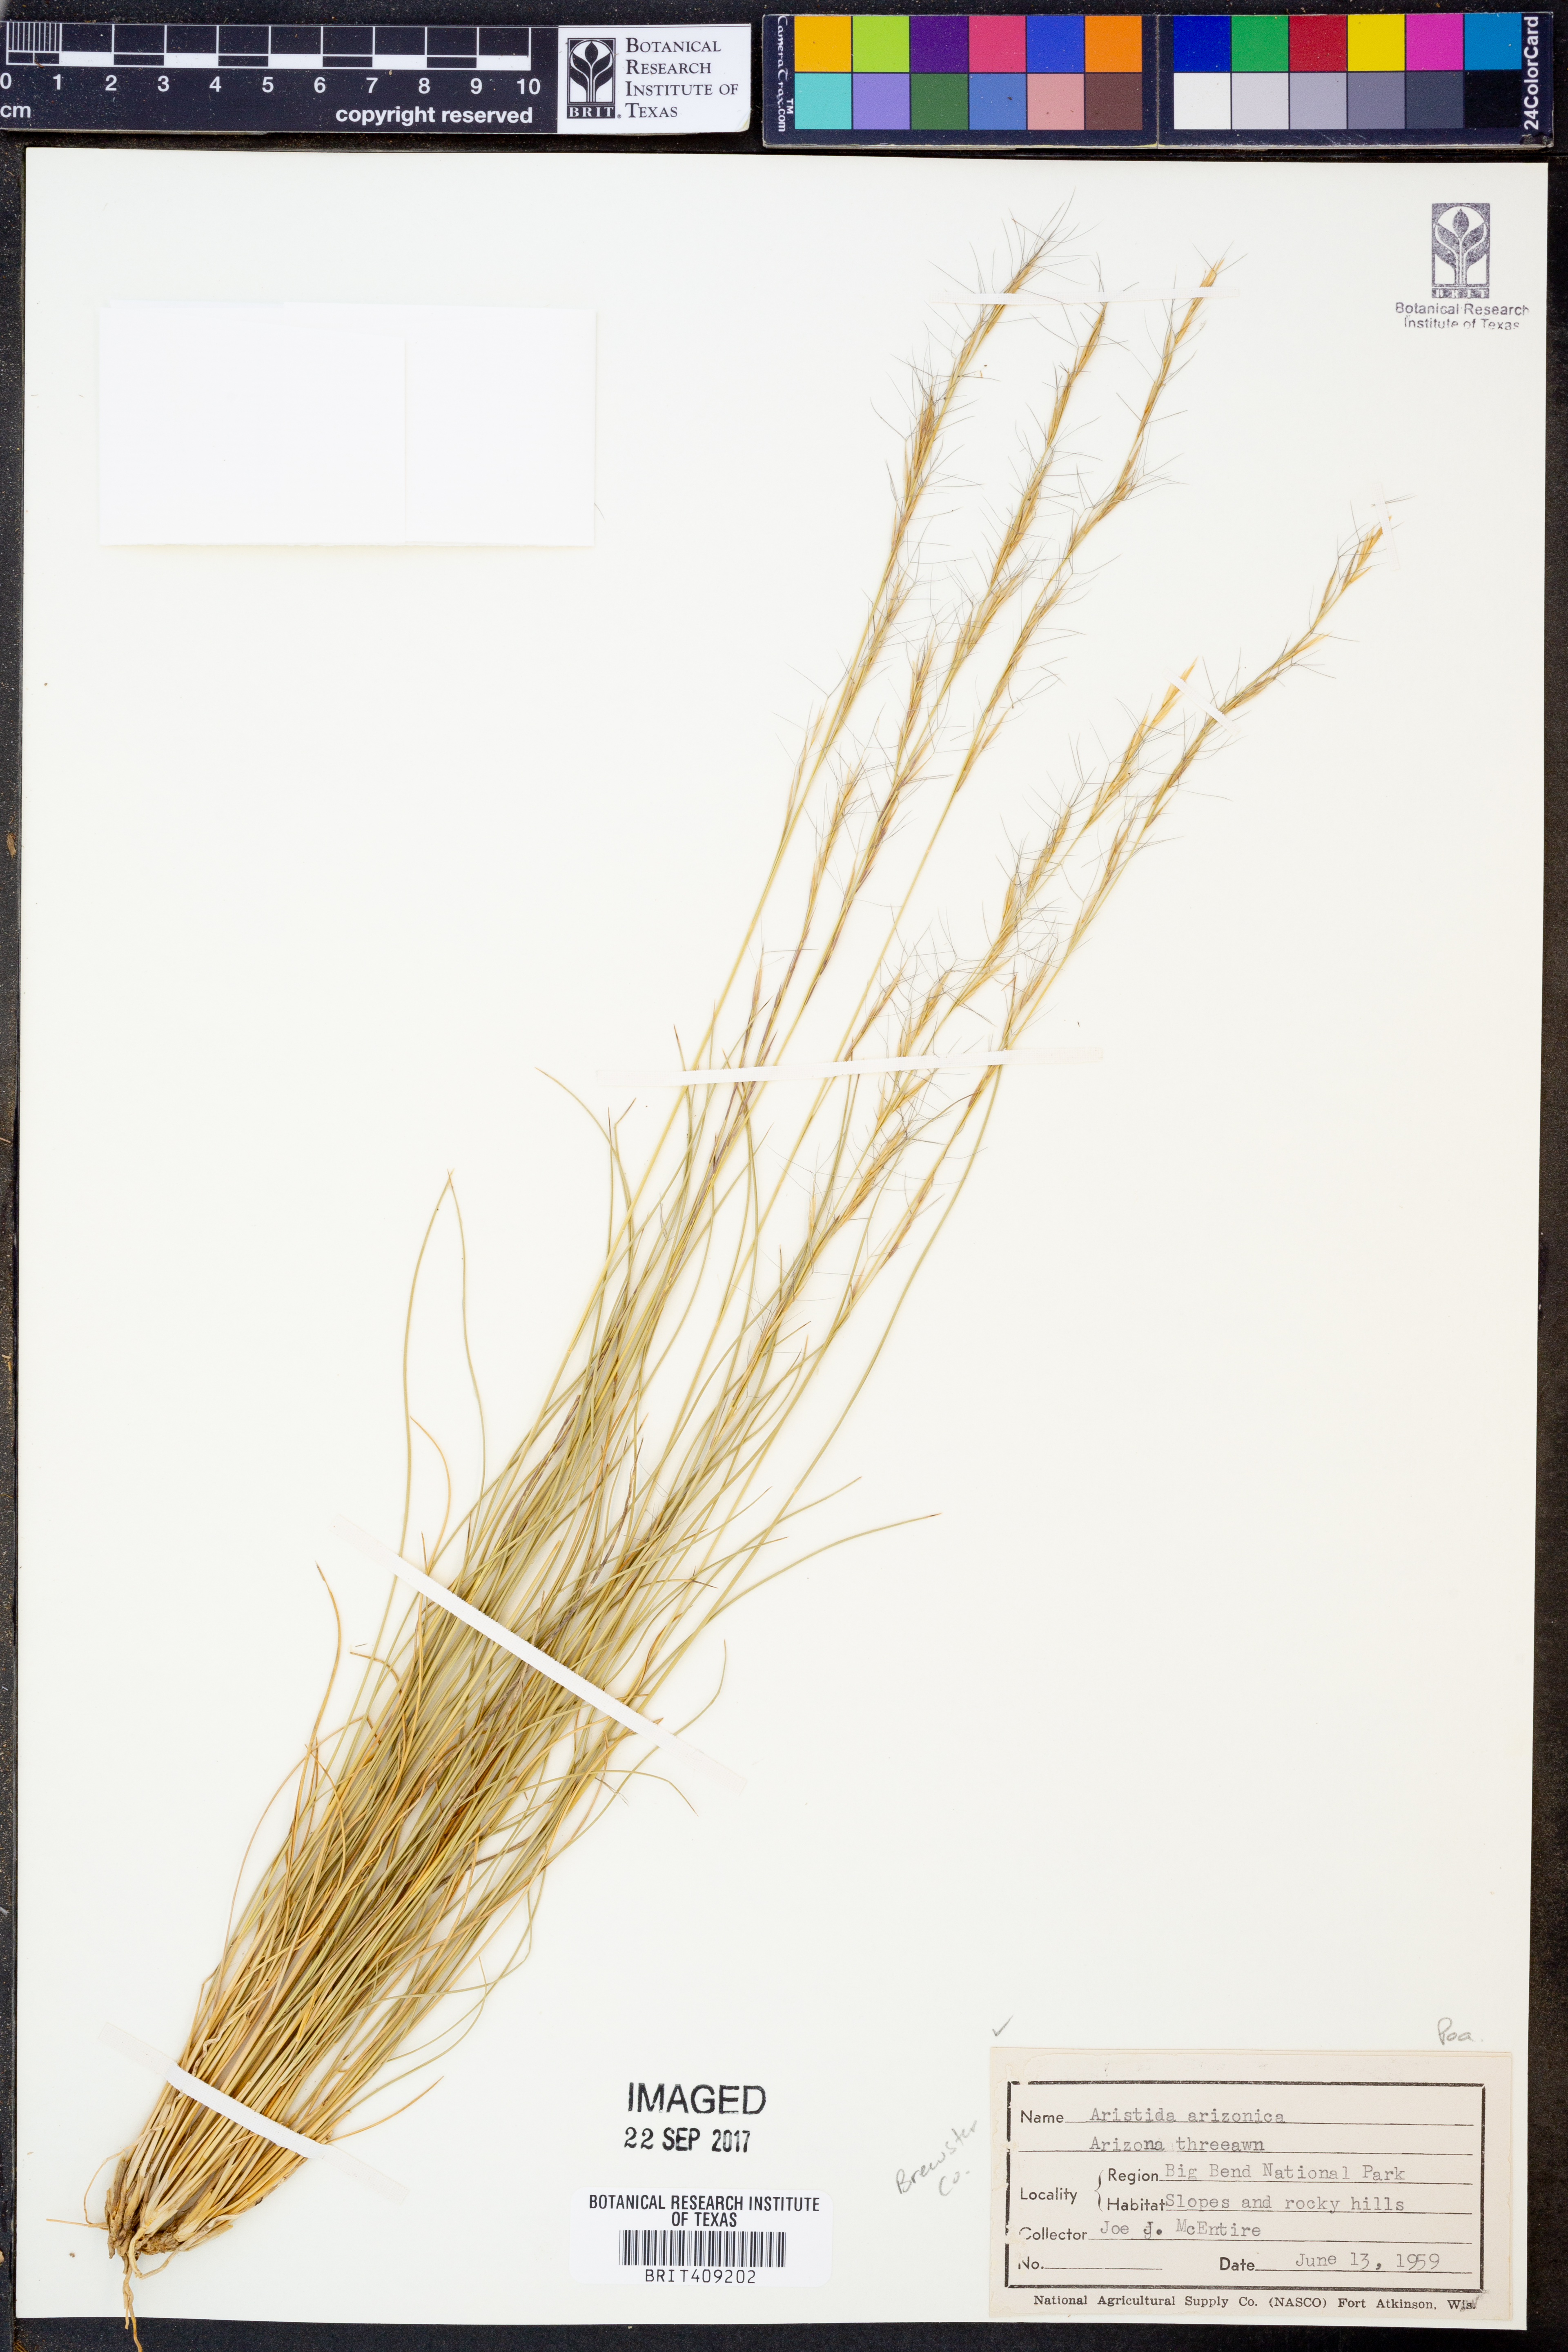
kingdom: Plantae
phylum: Tracheophyta
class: Liliopsida
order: Poales
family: Poaceae
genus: Aristida
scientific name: Aristida arizonica
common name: Arizona threeawn
